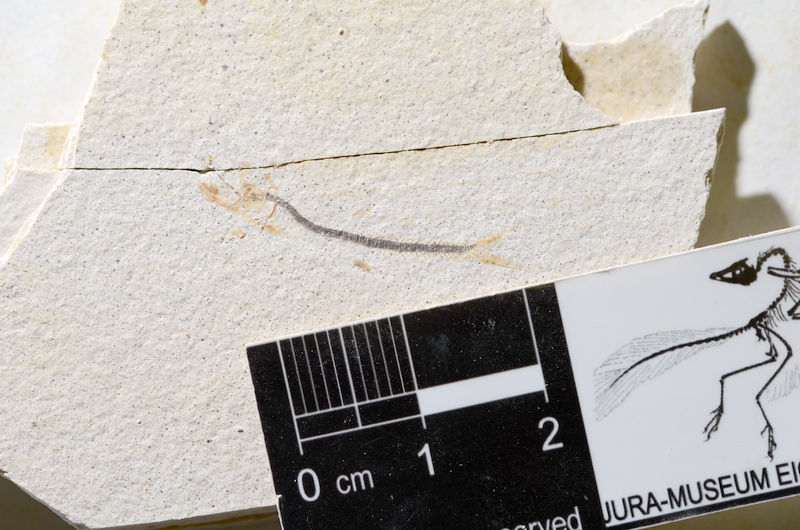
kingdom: Animalia
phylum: Chordata
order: Salmoniformes
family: Orthogonikleithridae
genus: Orthogonikleithrus
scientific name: Orthogonikleithrus hoelli
